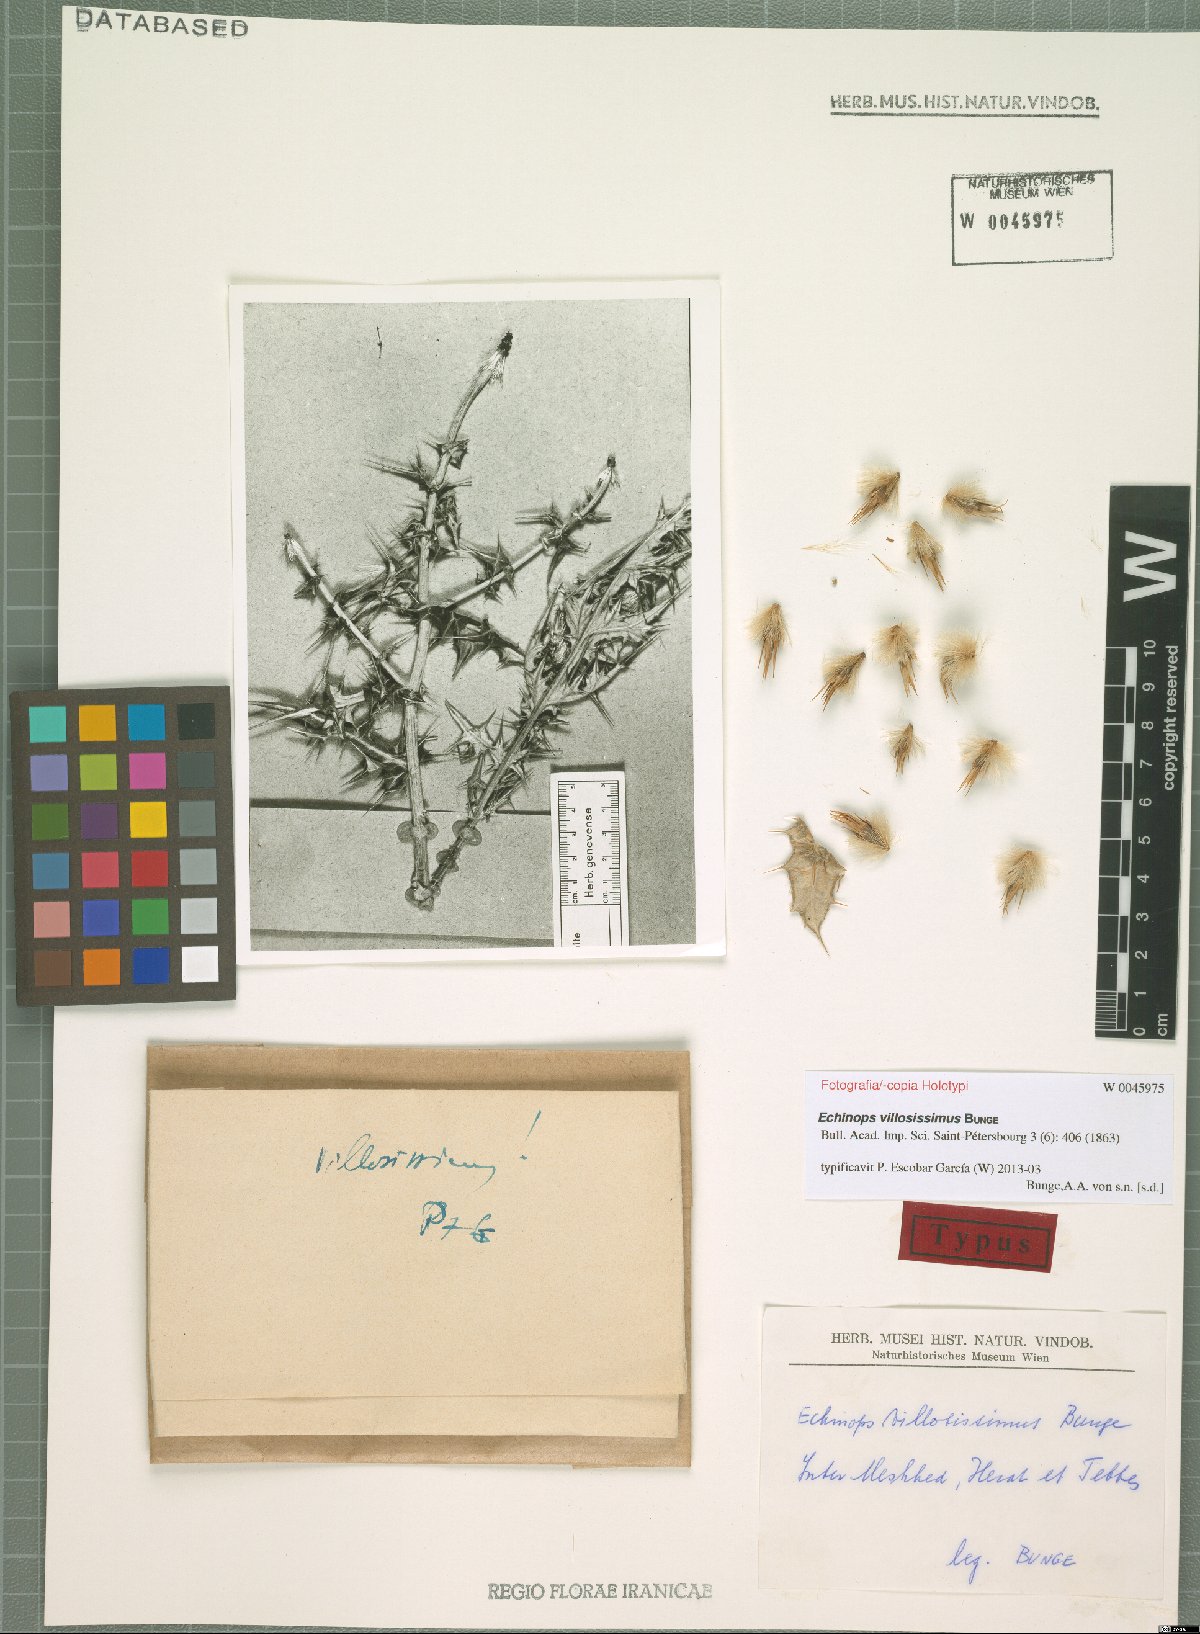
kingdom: Plantae
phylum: Tracheophyta
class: Magnoliopsida
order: Asterales
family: Asteraceae
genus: Echinops
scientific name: Echinops villosissimus
